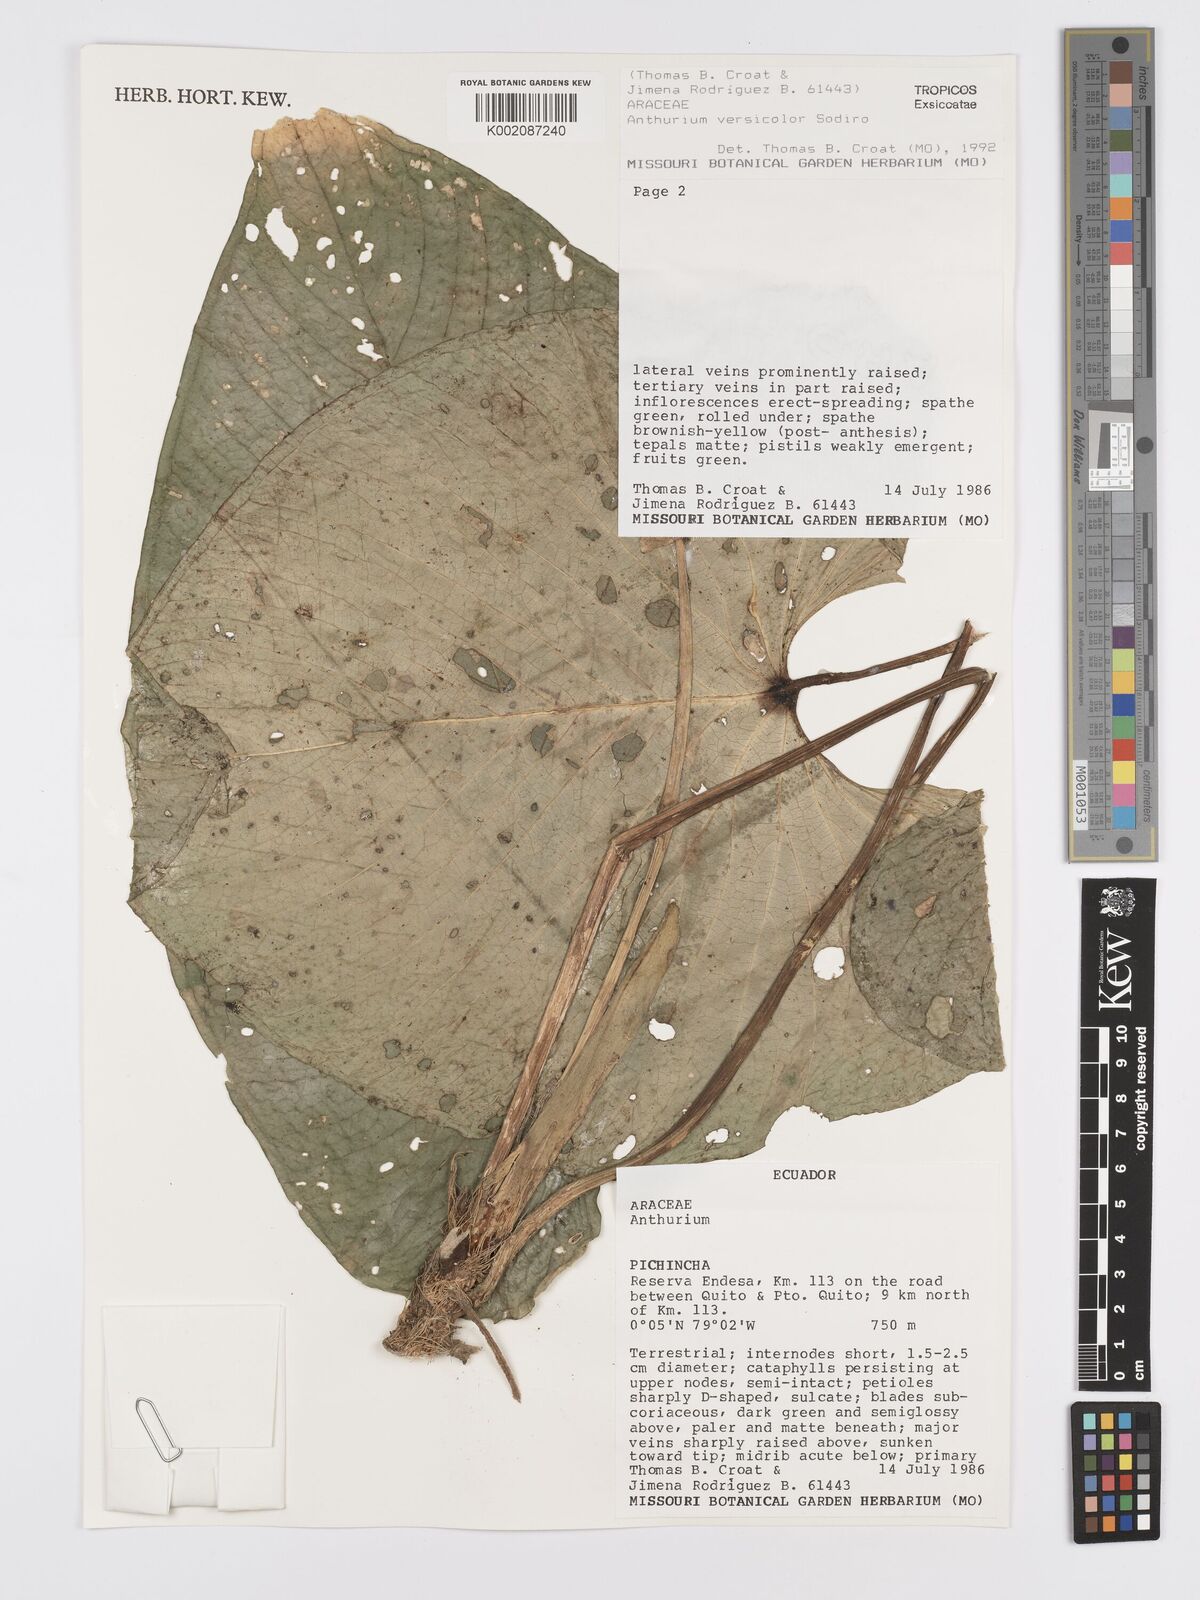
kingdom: Plantae
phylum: Tracheophyta
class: Liliopsida
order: Alismatales
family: Araceae
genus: Anthurium
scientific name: Anthurium versicolor
